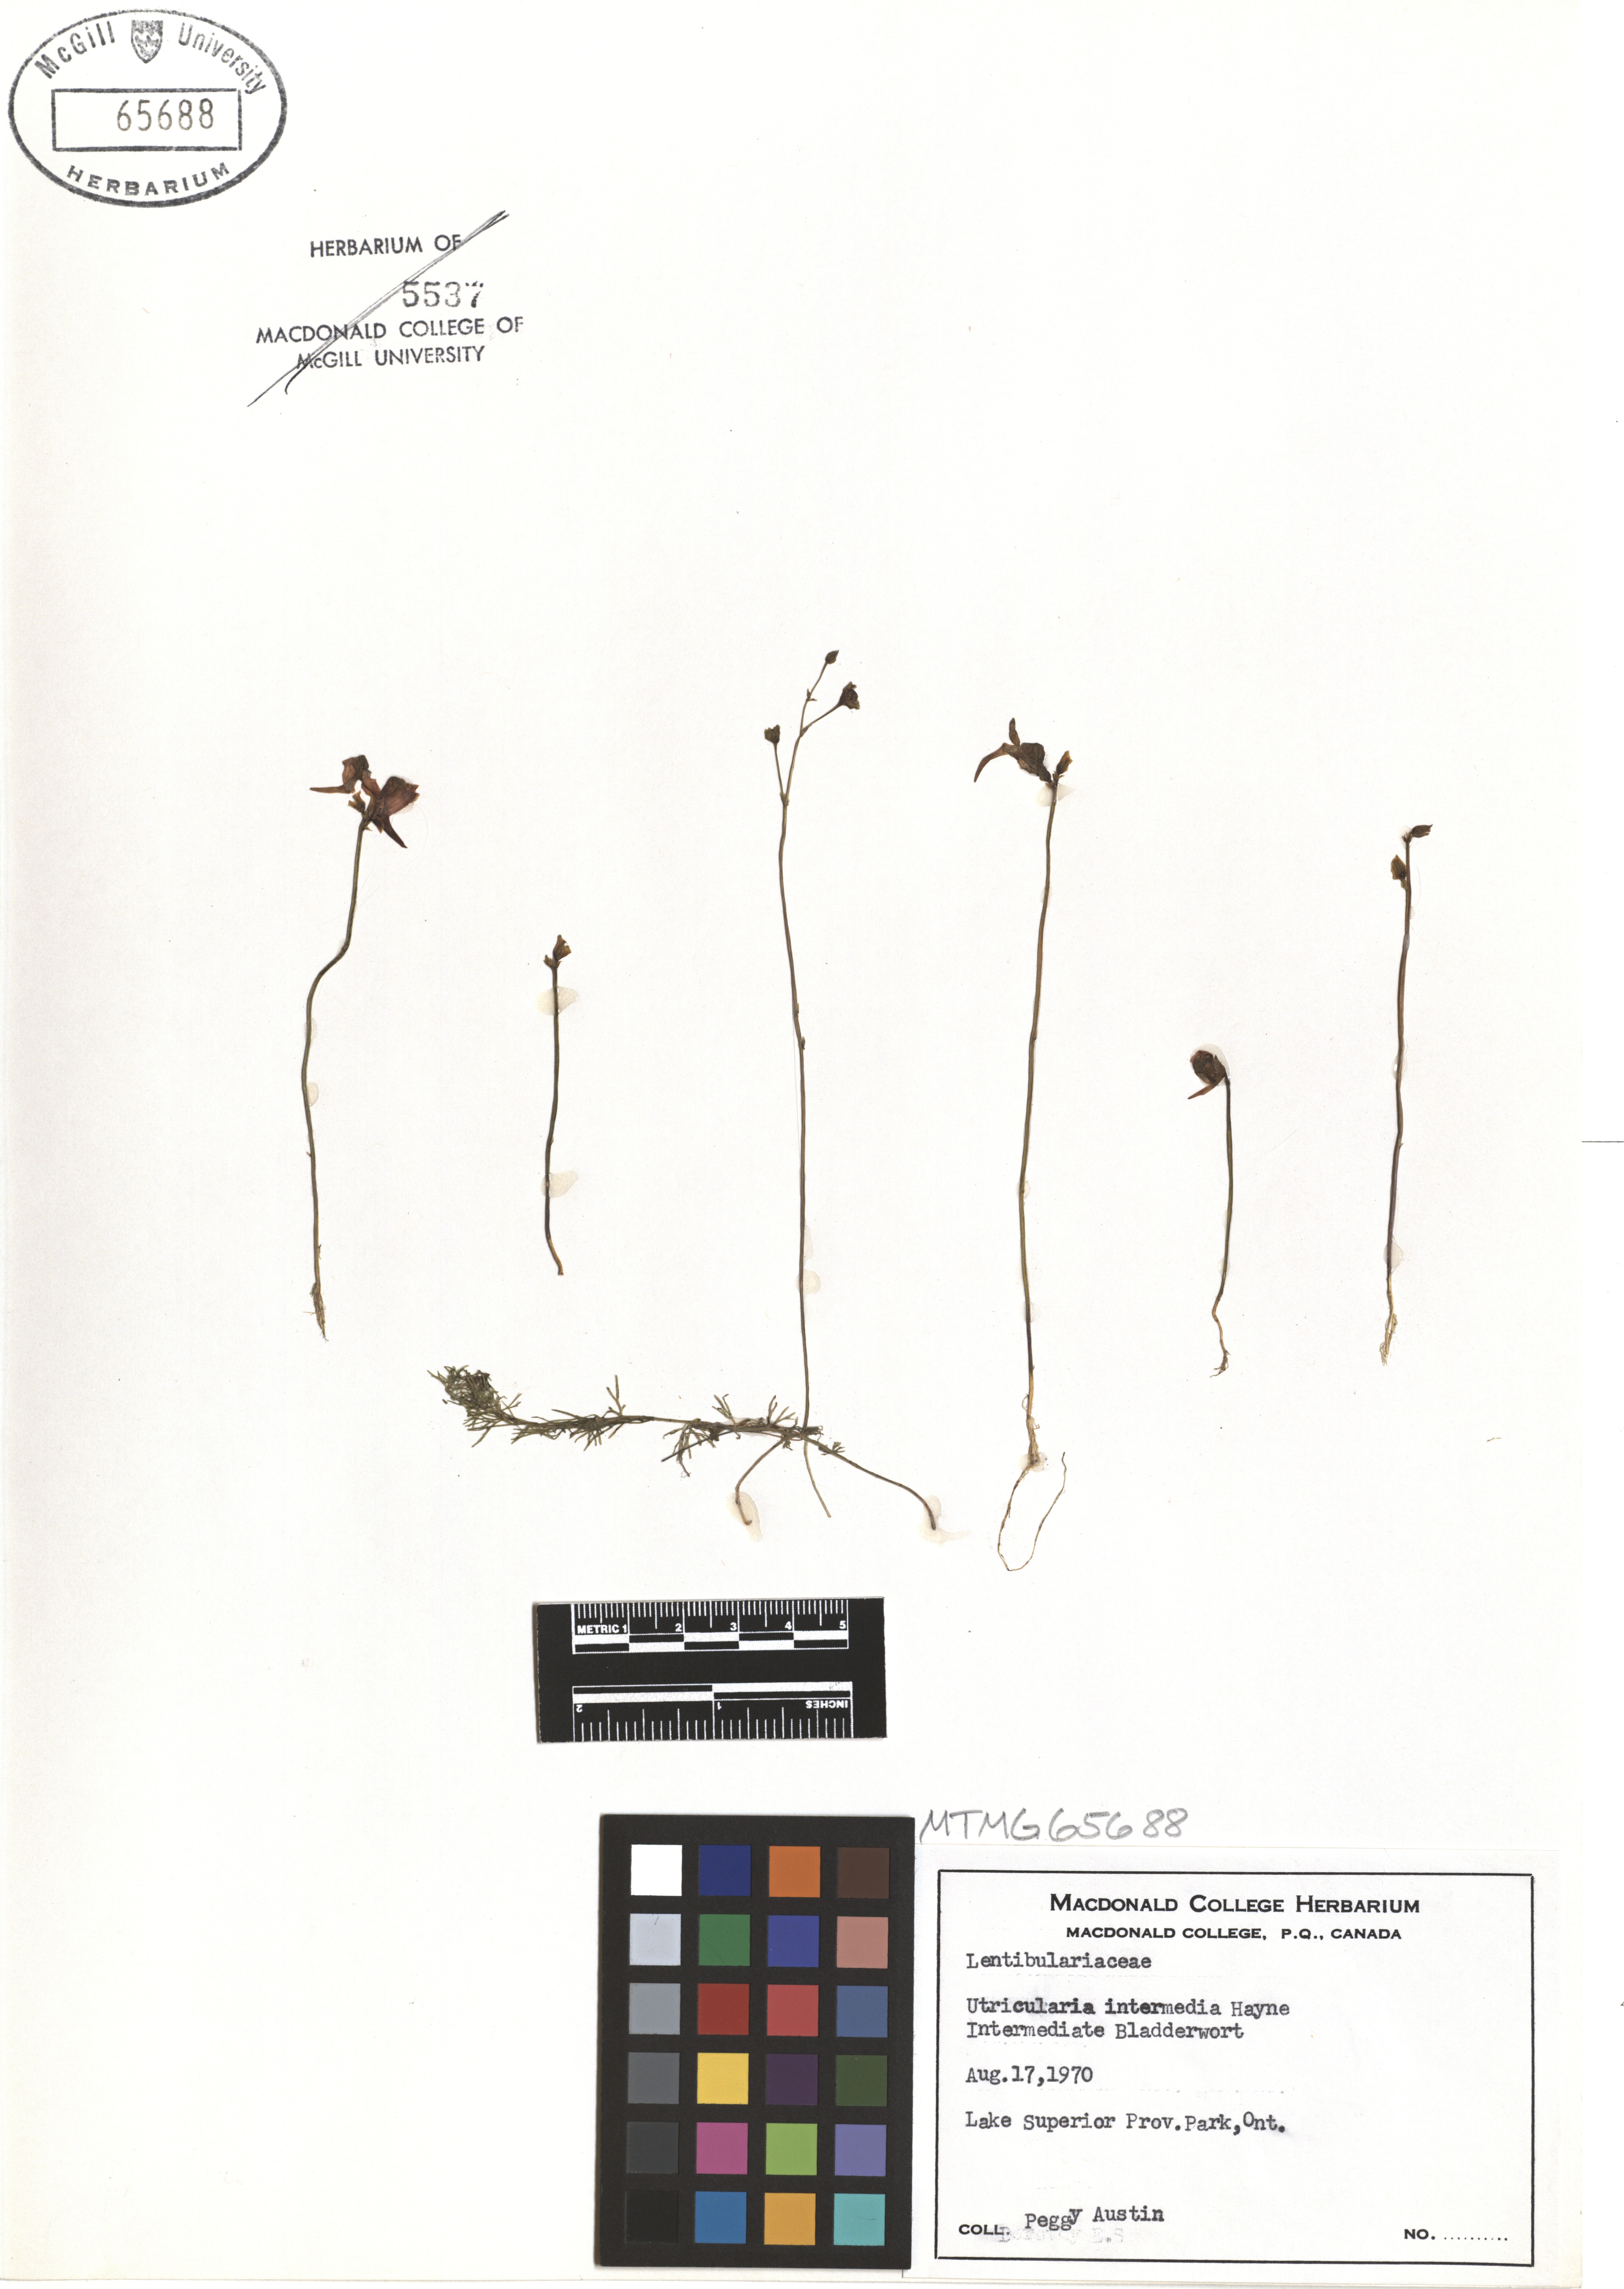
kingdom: Plantae
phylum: Tracheophyta
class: Magnoliopsida
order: Lamiales
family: Lentibulariaceae
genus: Utricularia
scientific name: Utricularia intermedia
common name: Intermediate bladderwort
